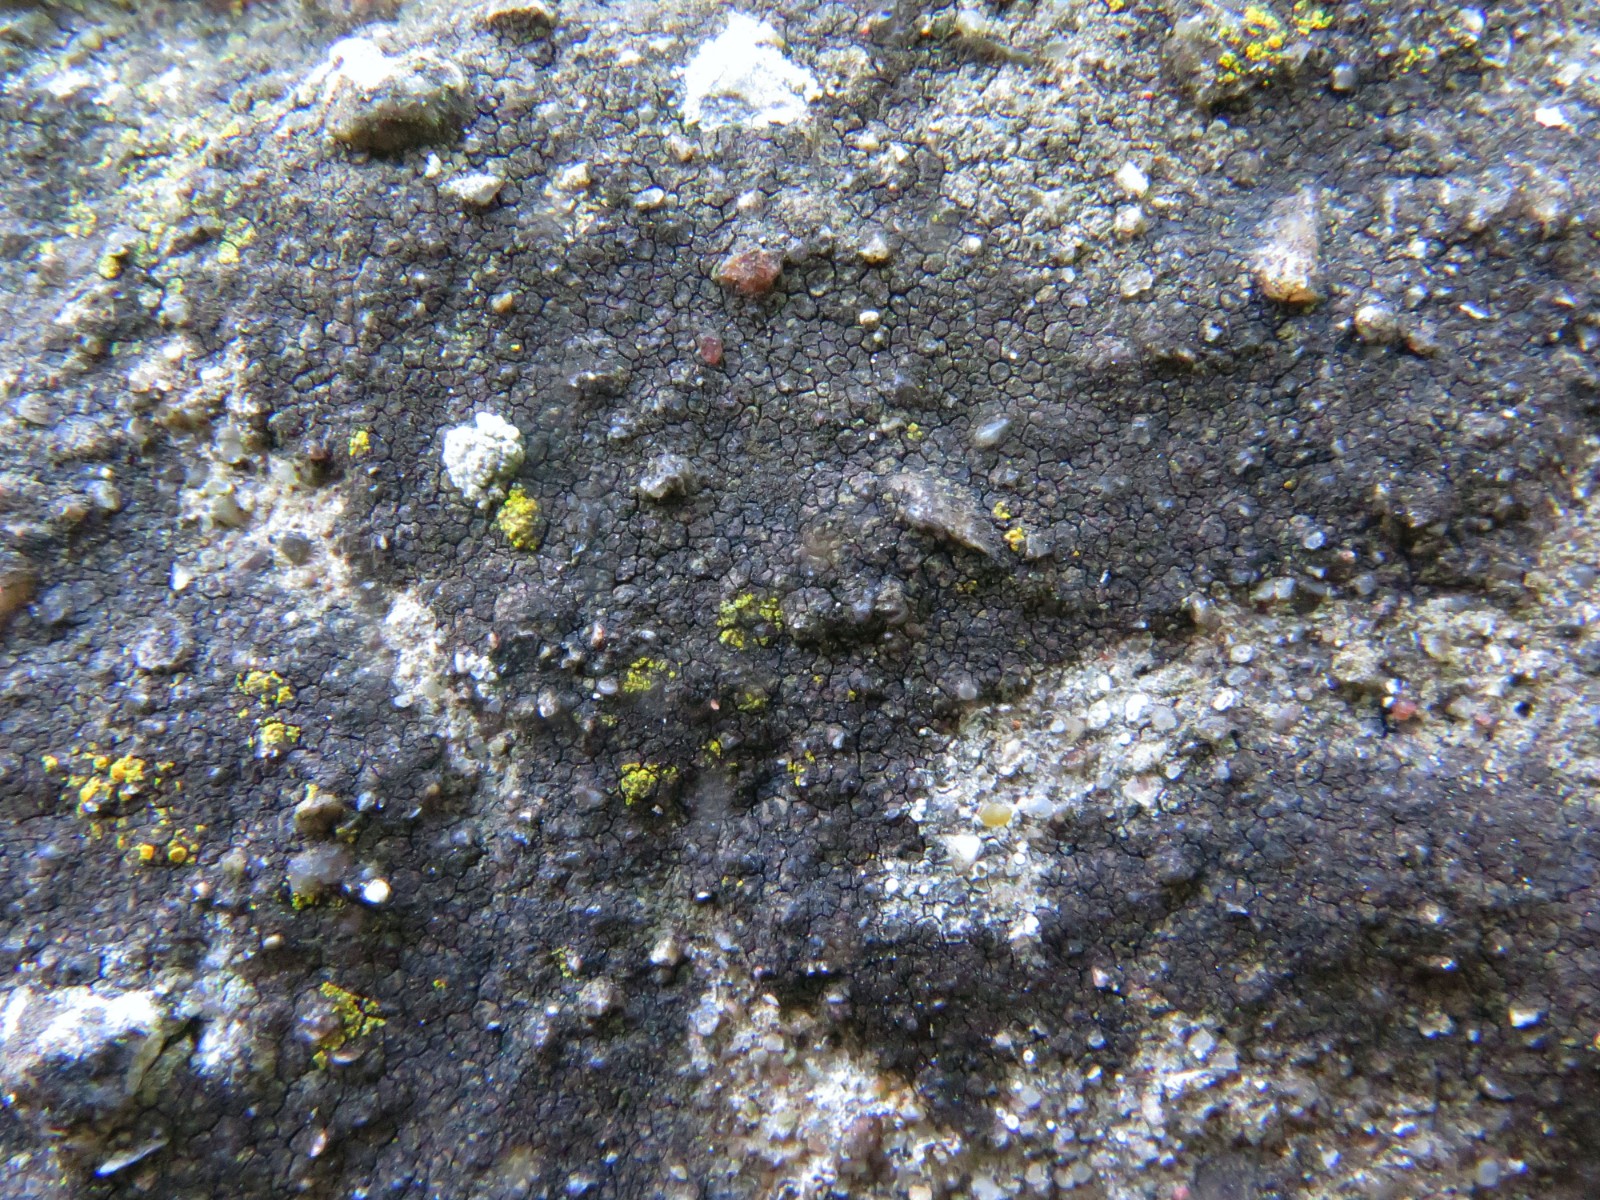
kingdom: Fungi
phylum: Ascomycota
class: Eurotiomycetes
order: Verrucariales
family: Verrucariaceae
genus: Verrucaria
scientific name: Verrucaria nigrescens
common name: sortbrun vortelav
